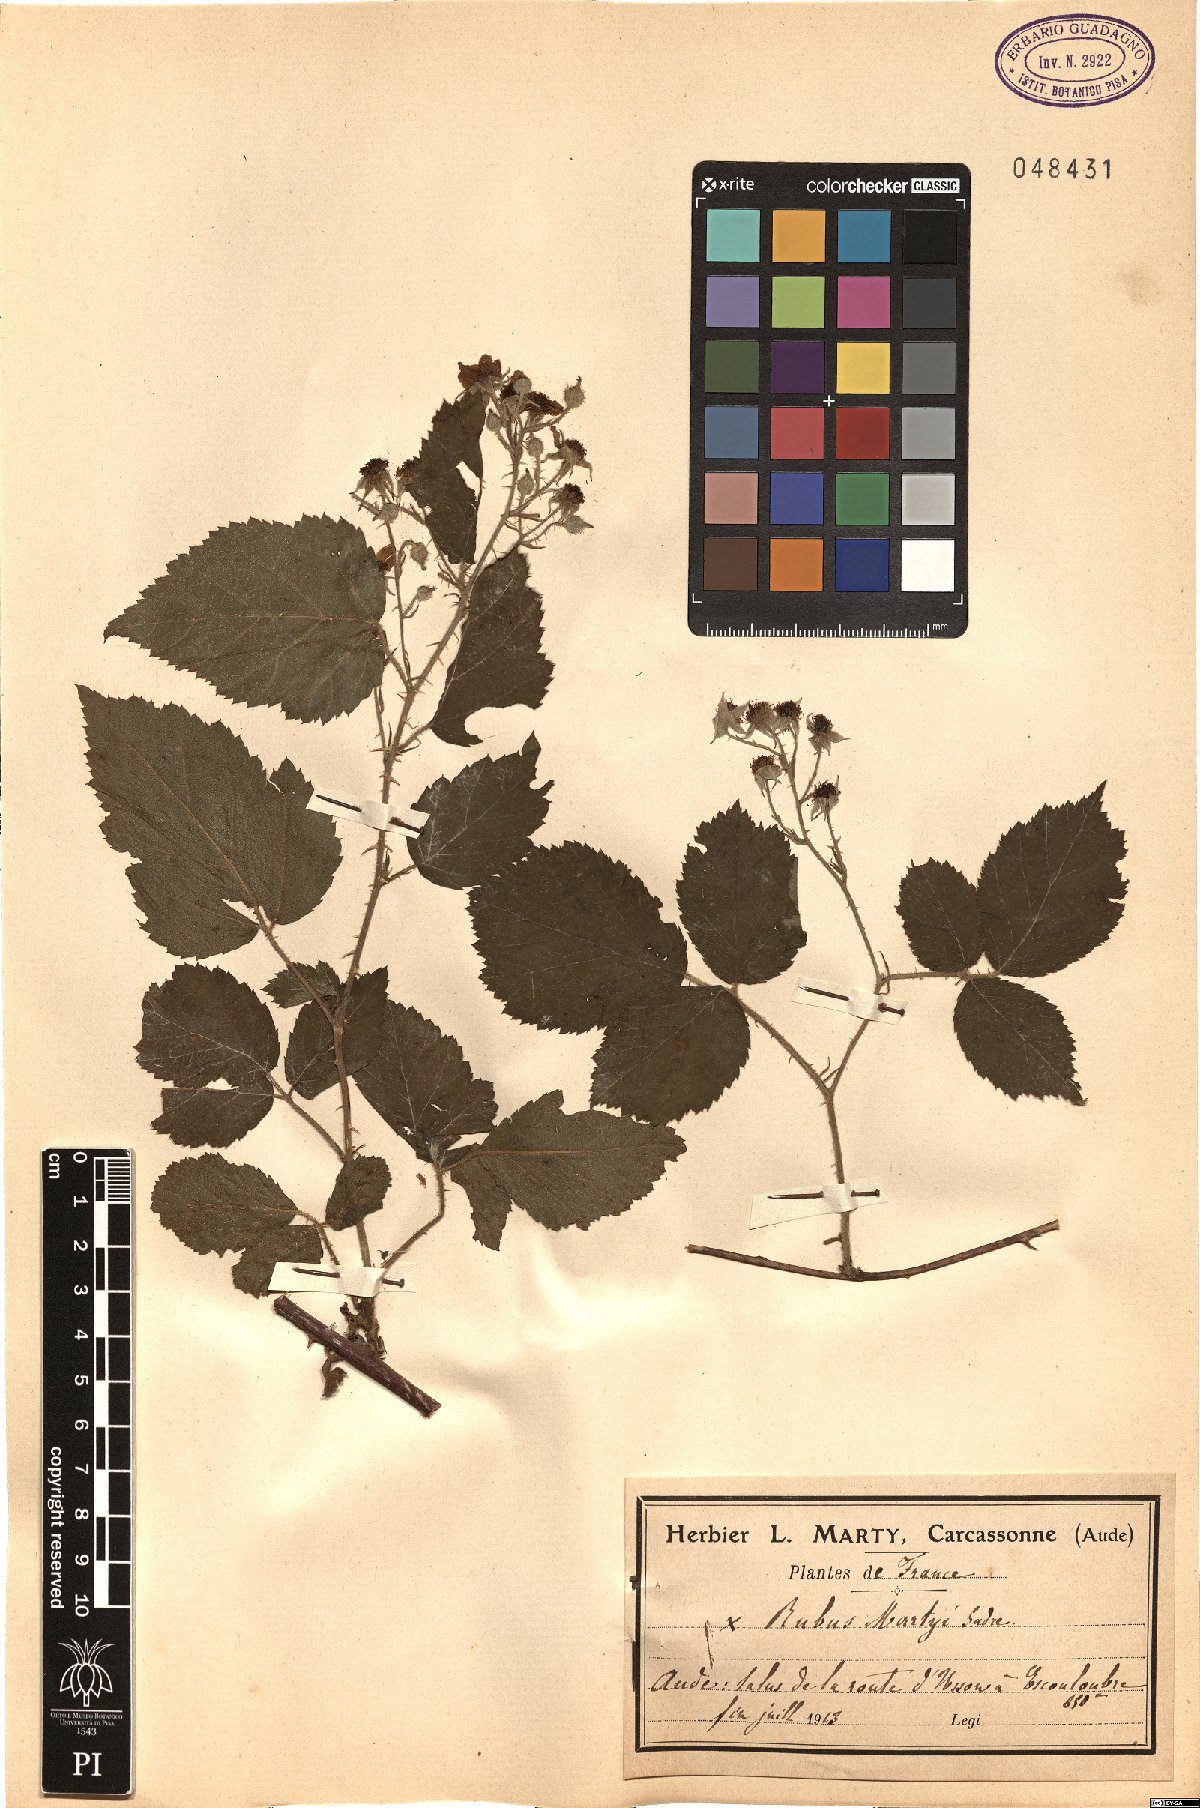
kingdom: Plantae
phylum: Tracheophyta
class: Magnoliopsida
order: Rosales
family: Rosaceae
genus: Rubus
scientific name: Rubus martyi
